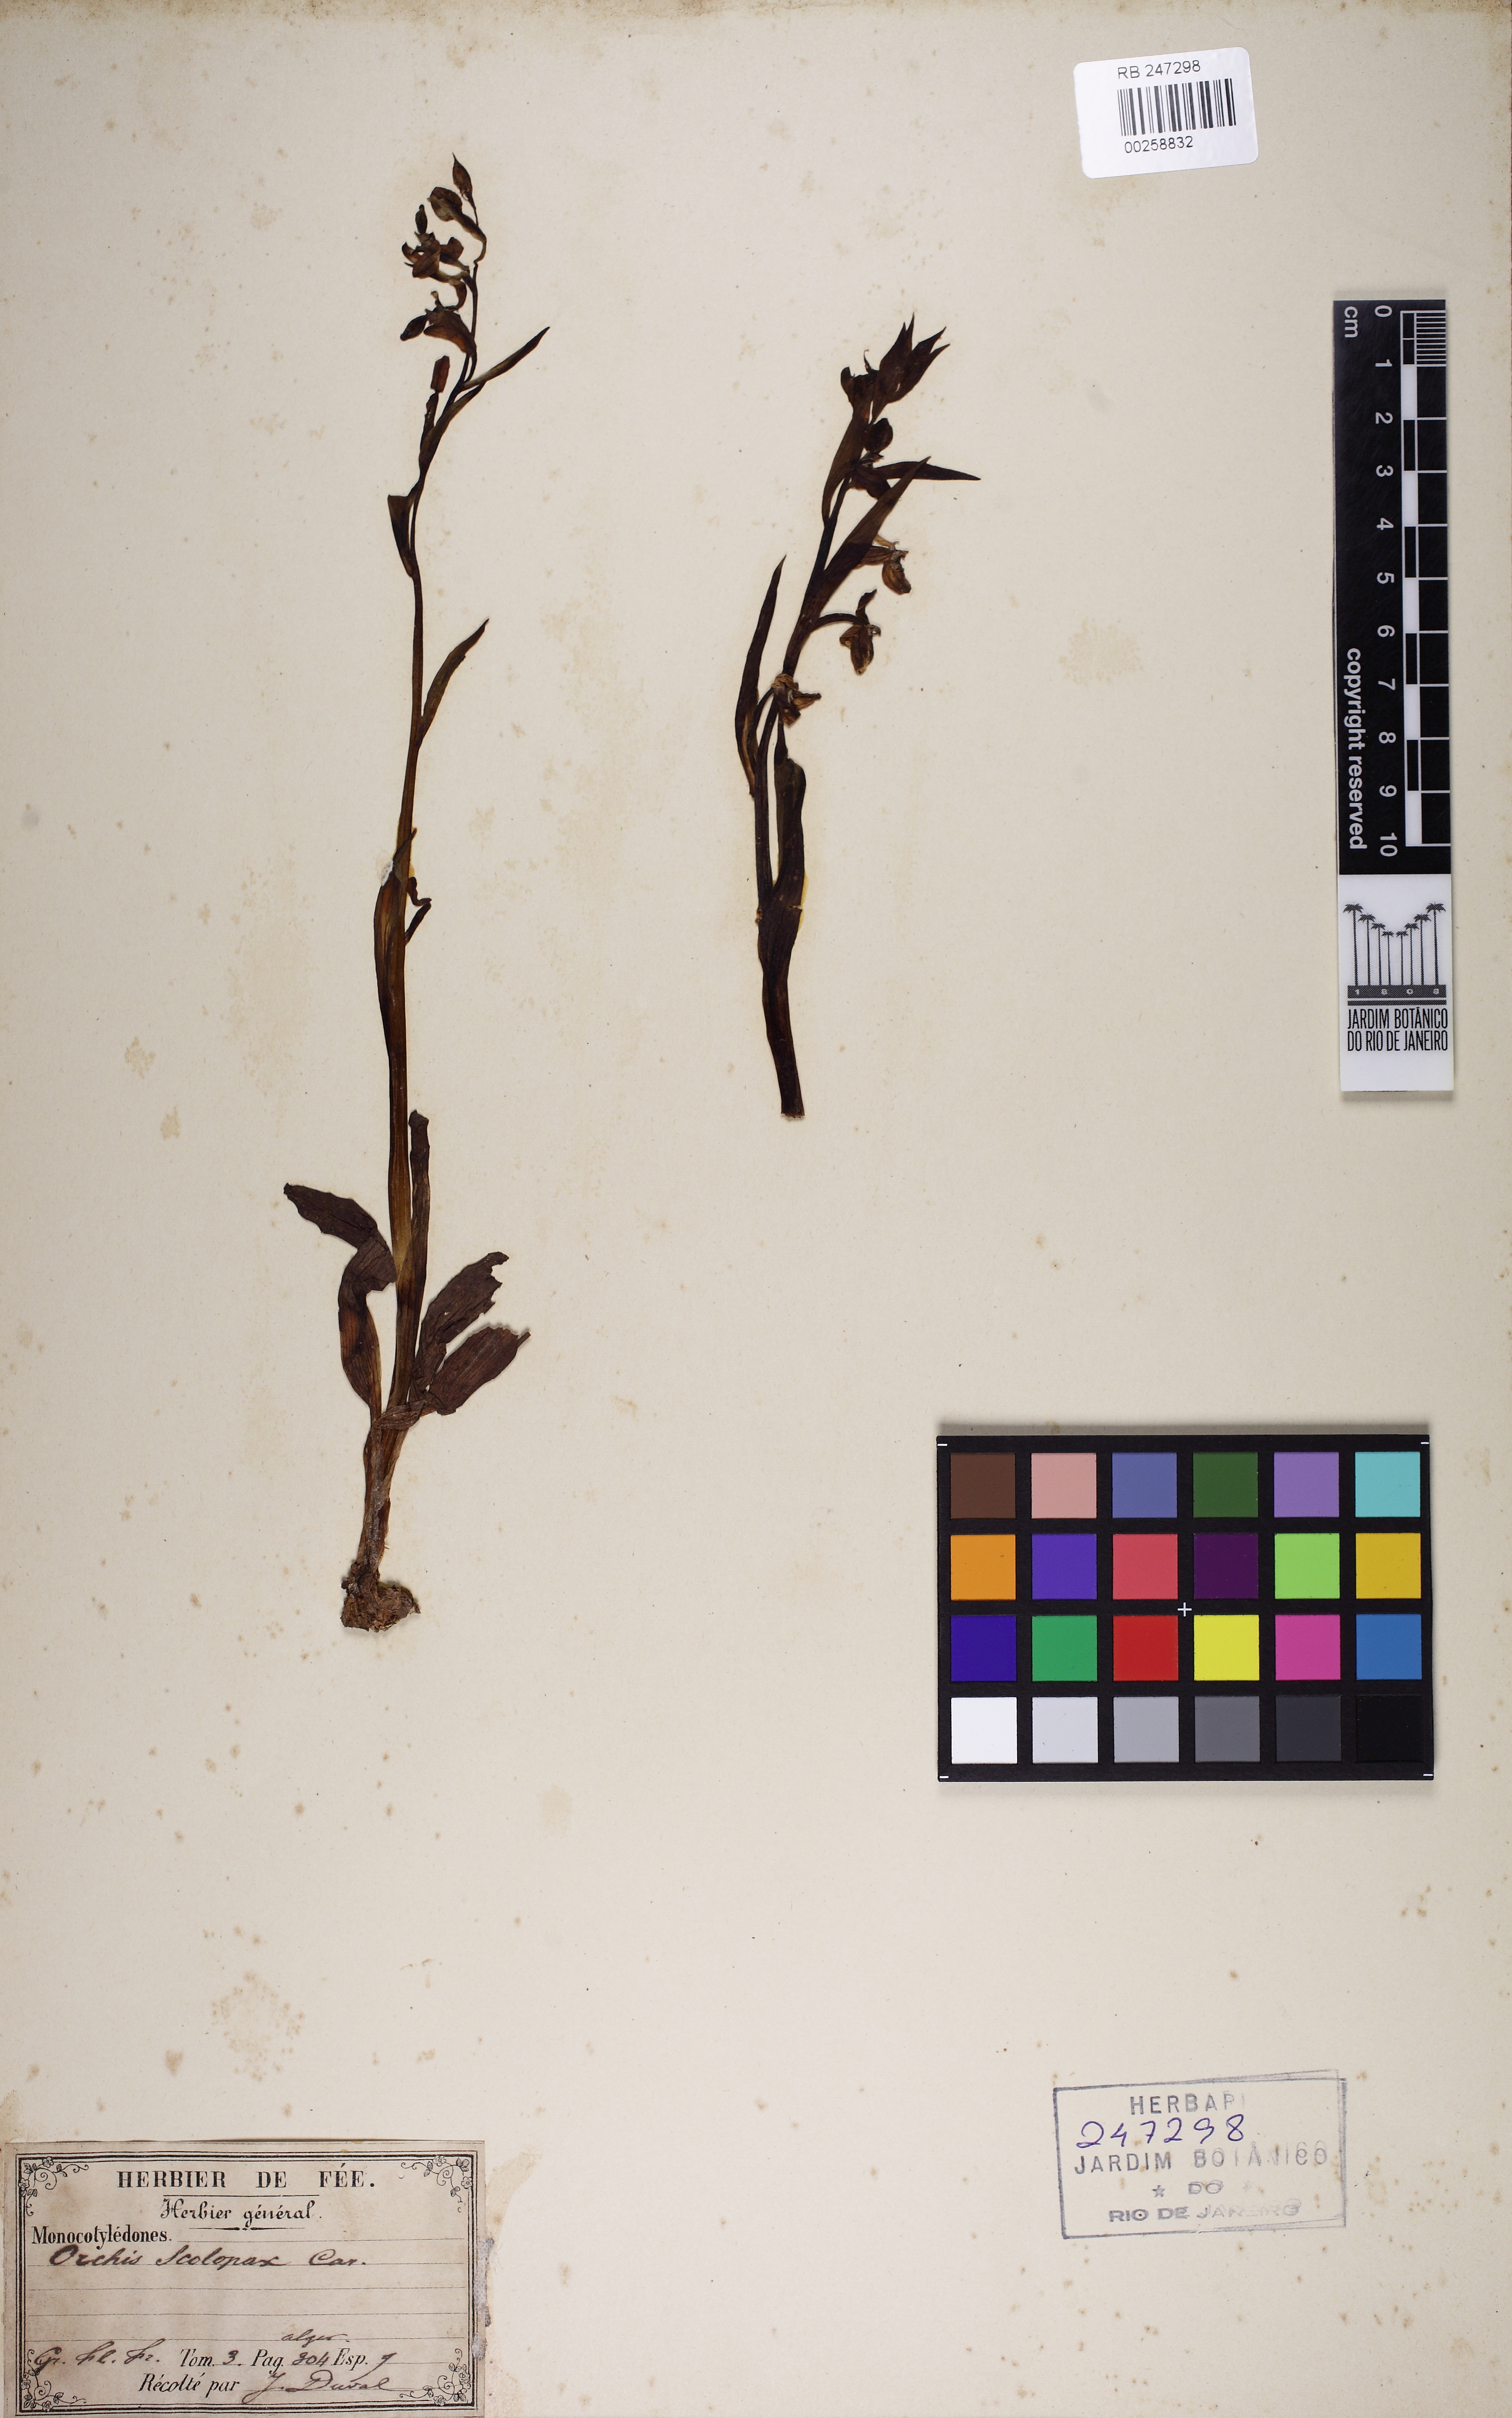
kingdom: Plantae
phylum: Tracheophyta
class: Liliopsida
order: Asparagales
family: Orchidaceae
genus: Orchis
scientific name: Orchis
